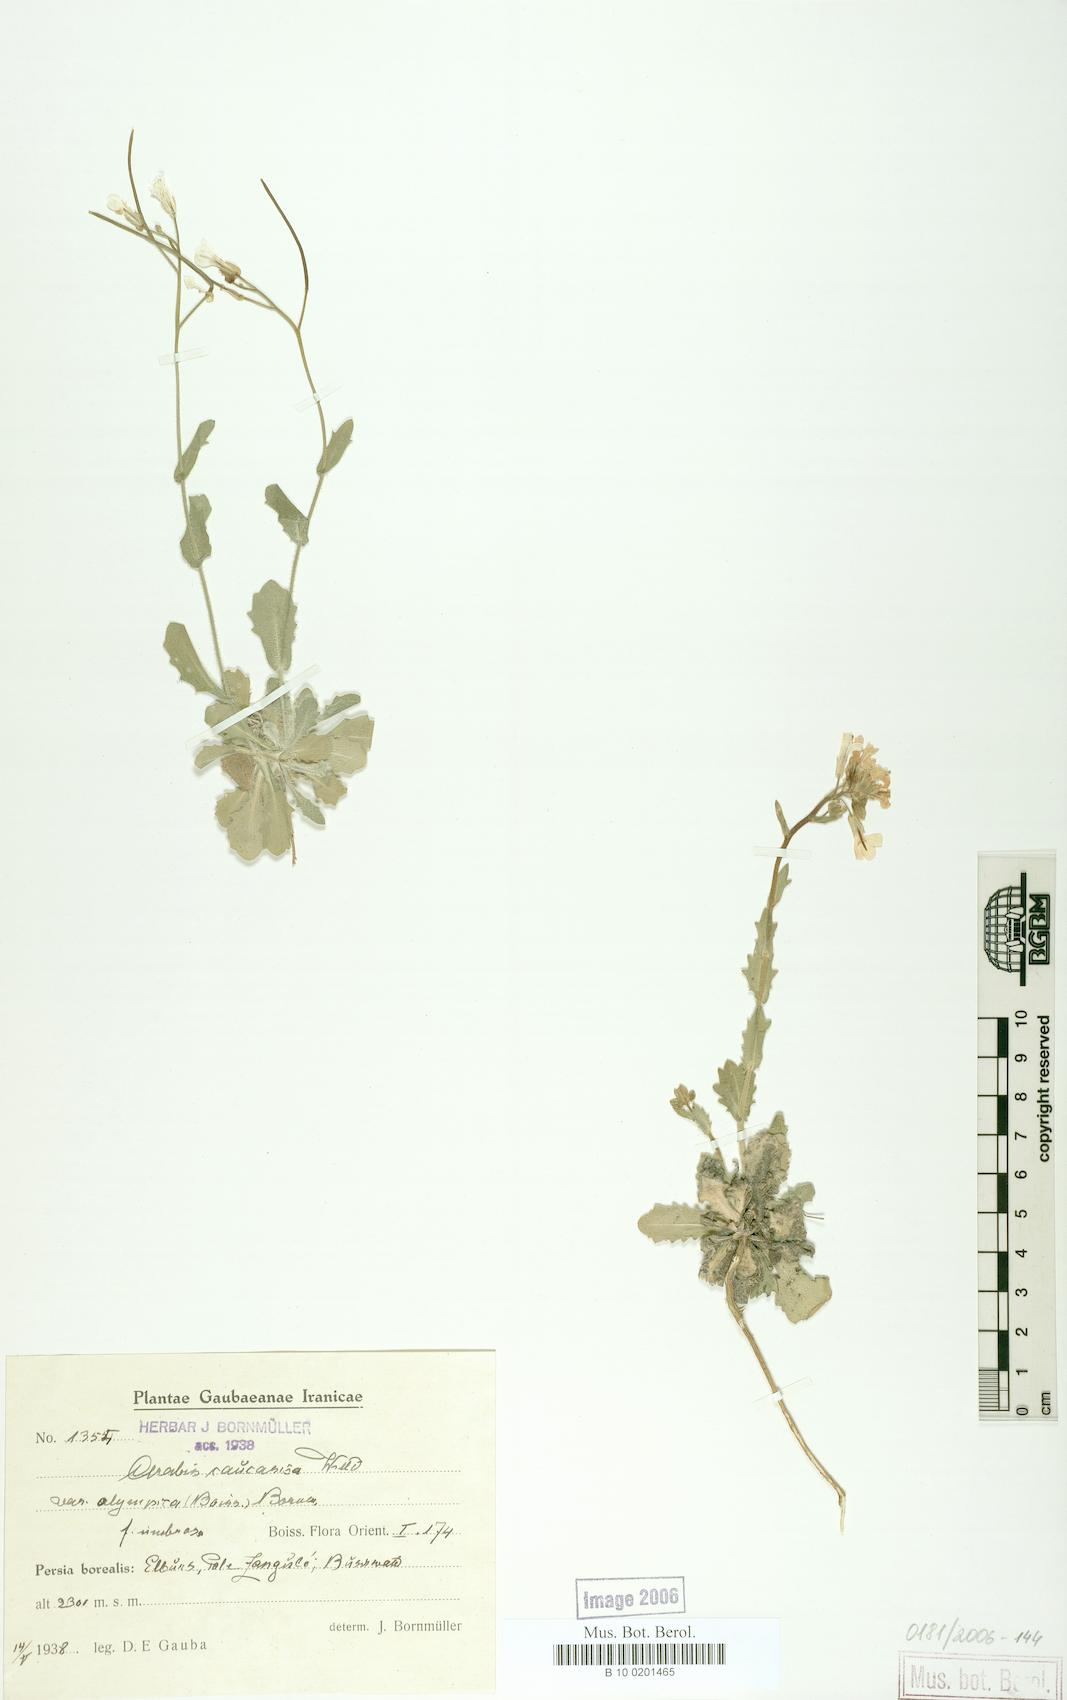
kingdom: Plantae
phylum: Tracheophyta
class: Magnoliopsida
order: Brassicales
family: Brassicaceae
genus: Arabis
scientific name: Arabis caucasica
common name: Gray rockcress
